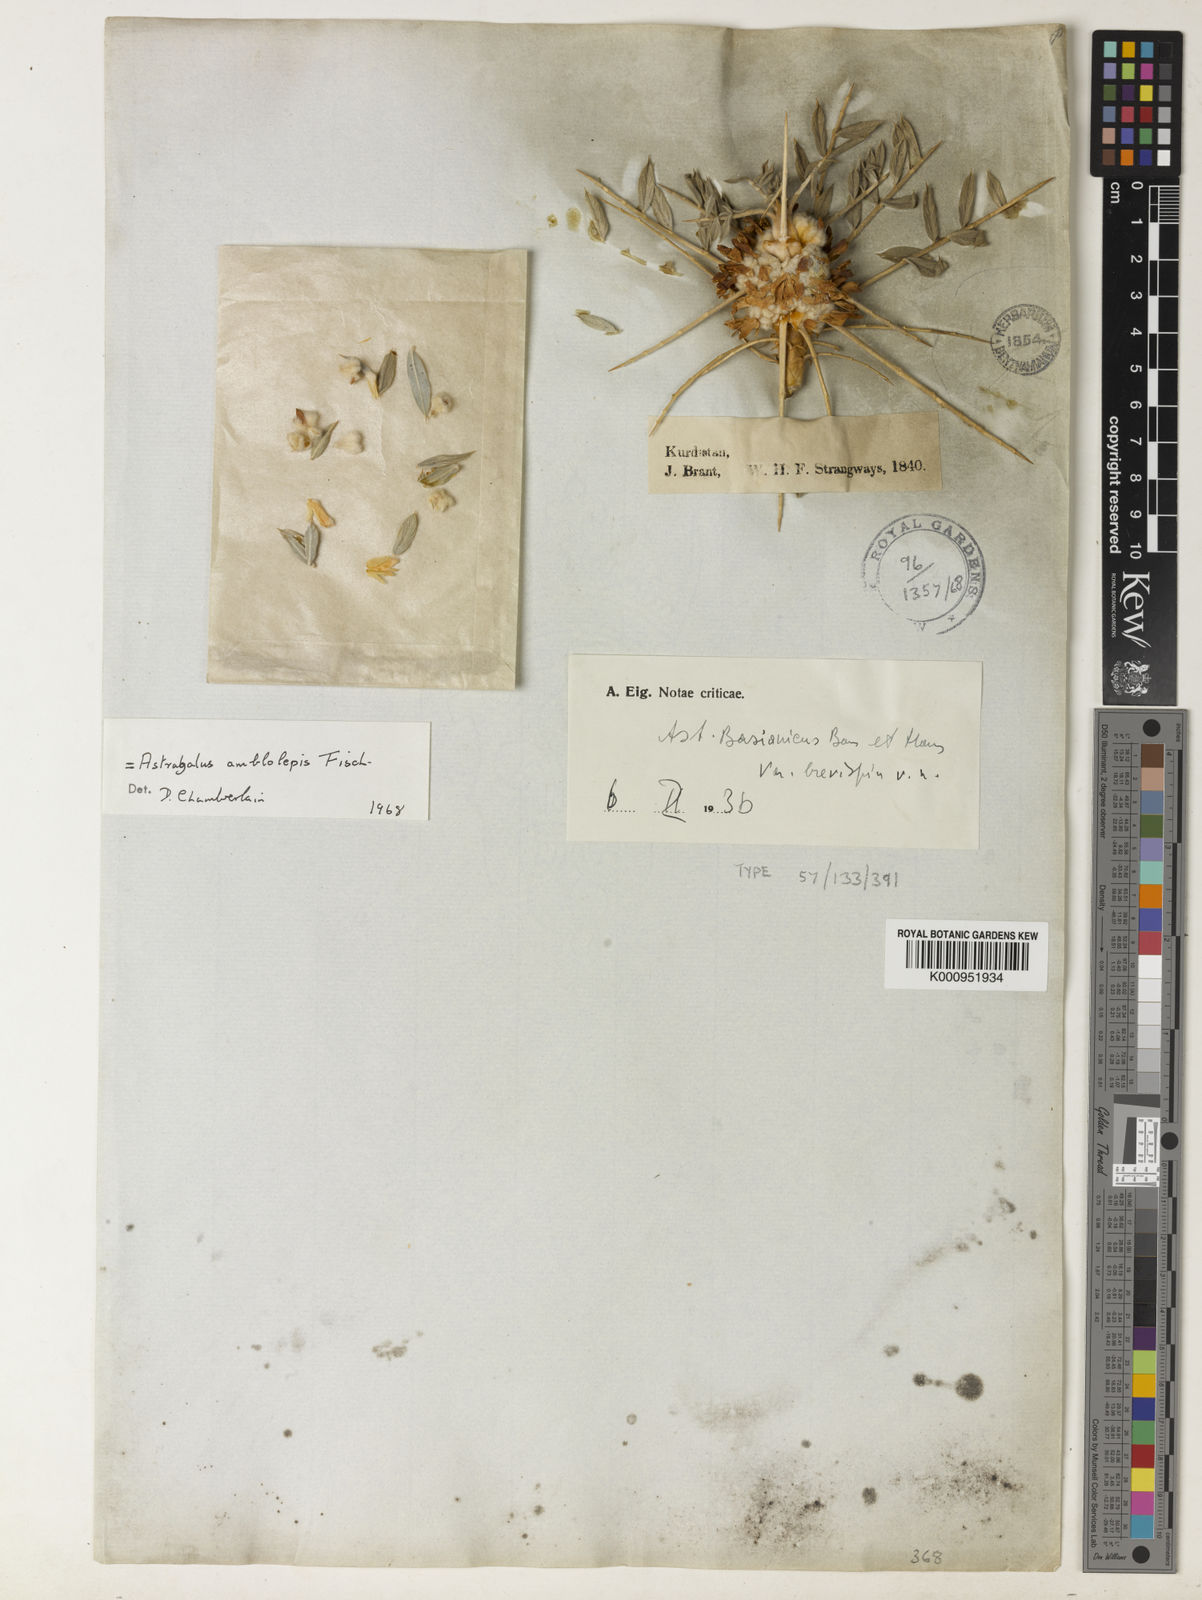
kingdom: Plantae
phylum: Tracheophyta
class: Magnoliopsida
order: Fabales
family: Fabaceae
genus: Astragalus
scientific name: Astragalus amblolepis
